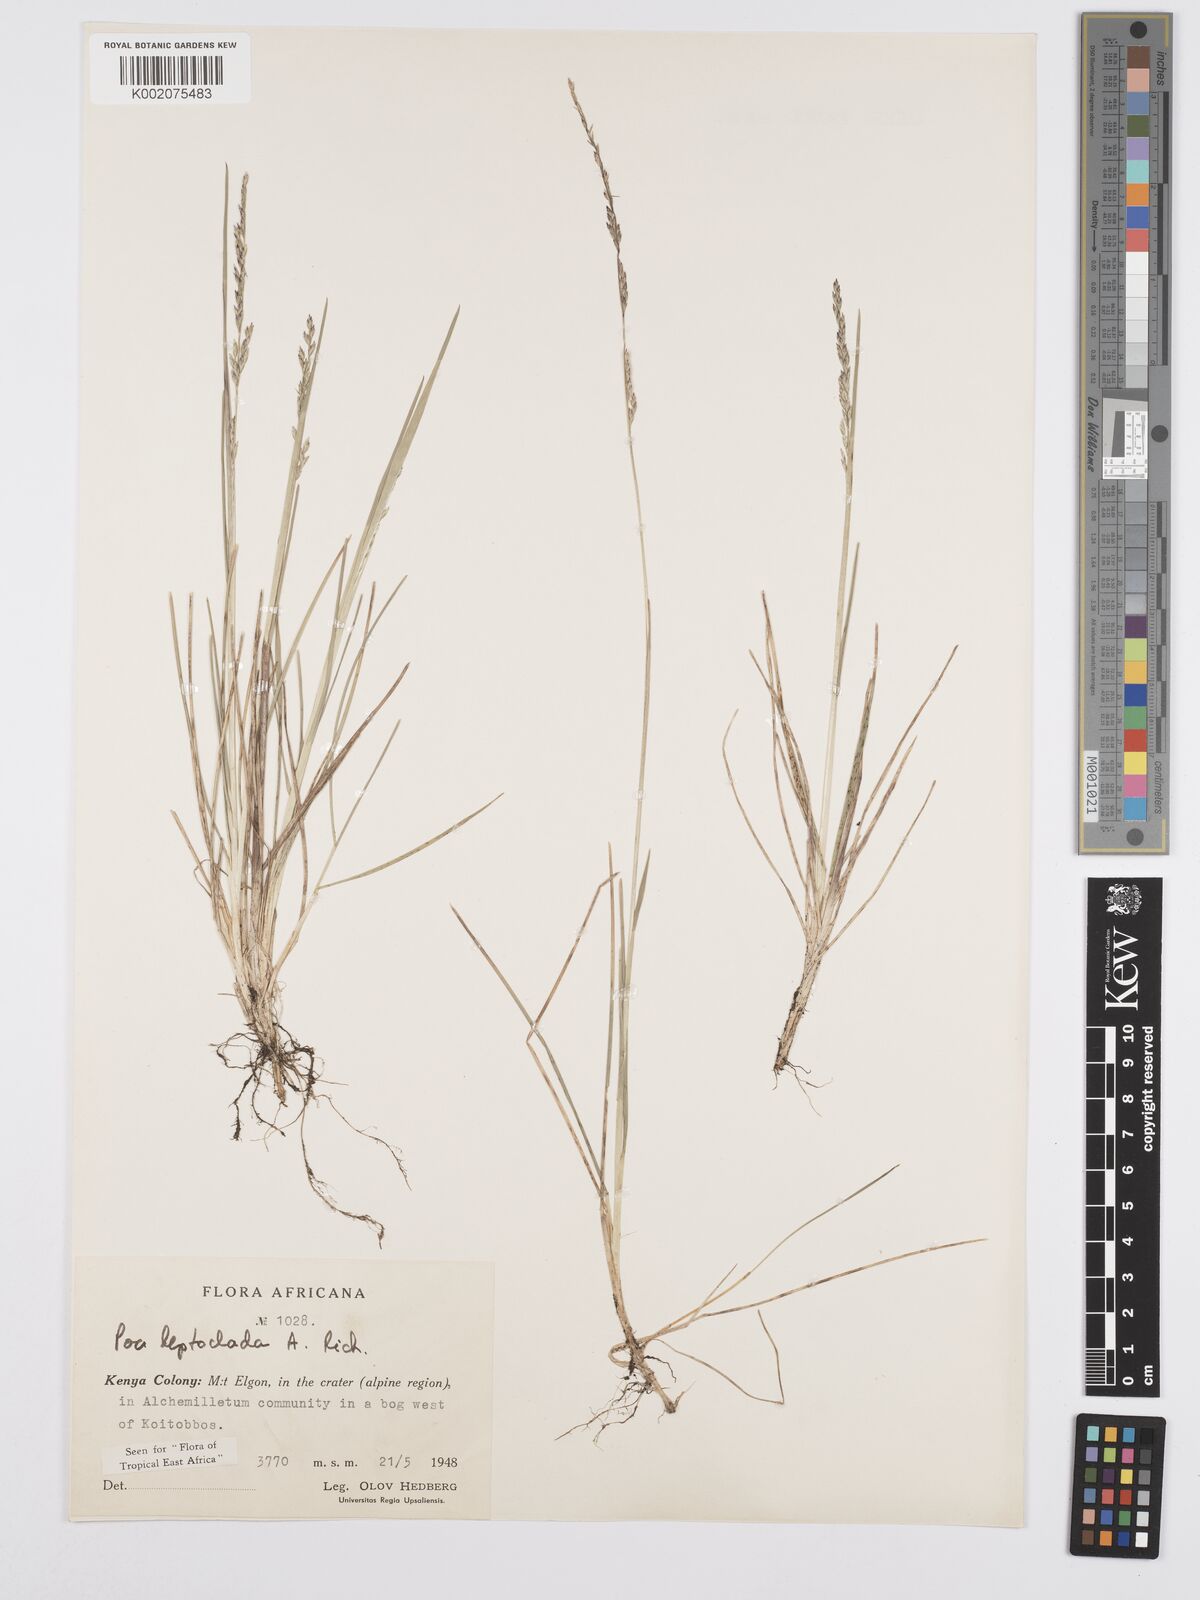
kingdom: Plantae
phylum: Tracheophyta
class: Liliopsida
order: Poales
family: Poaceae
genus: Poa
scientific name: Poa leptoclada
